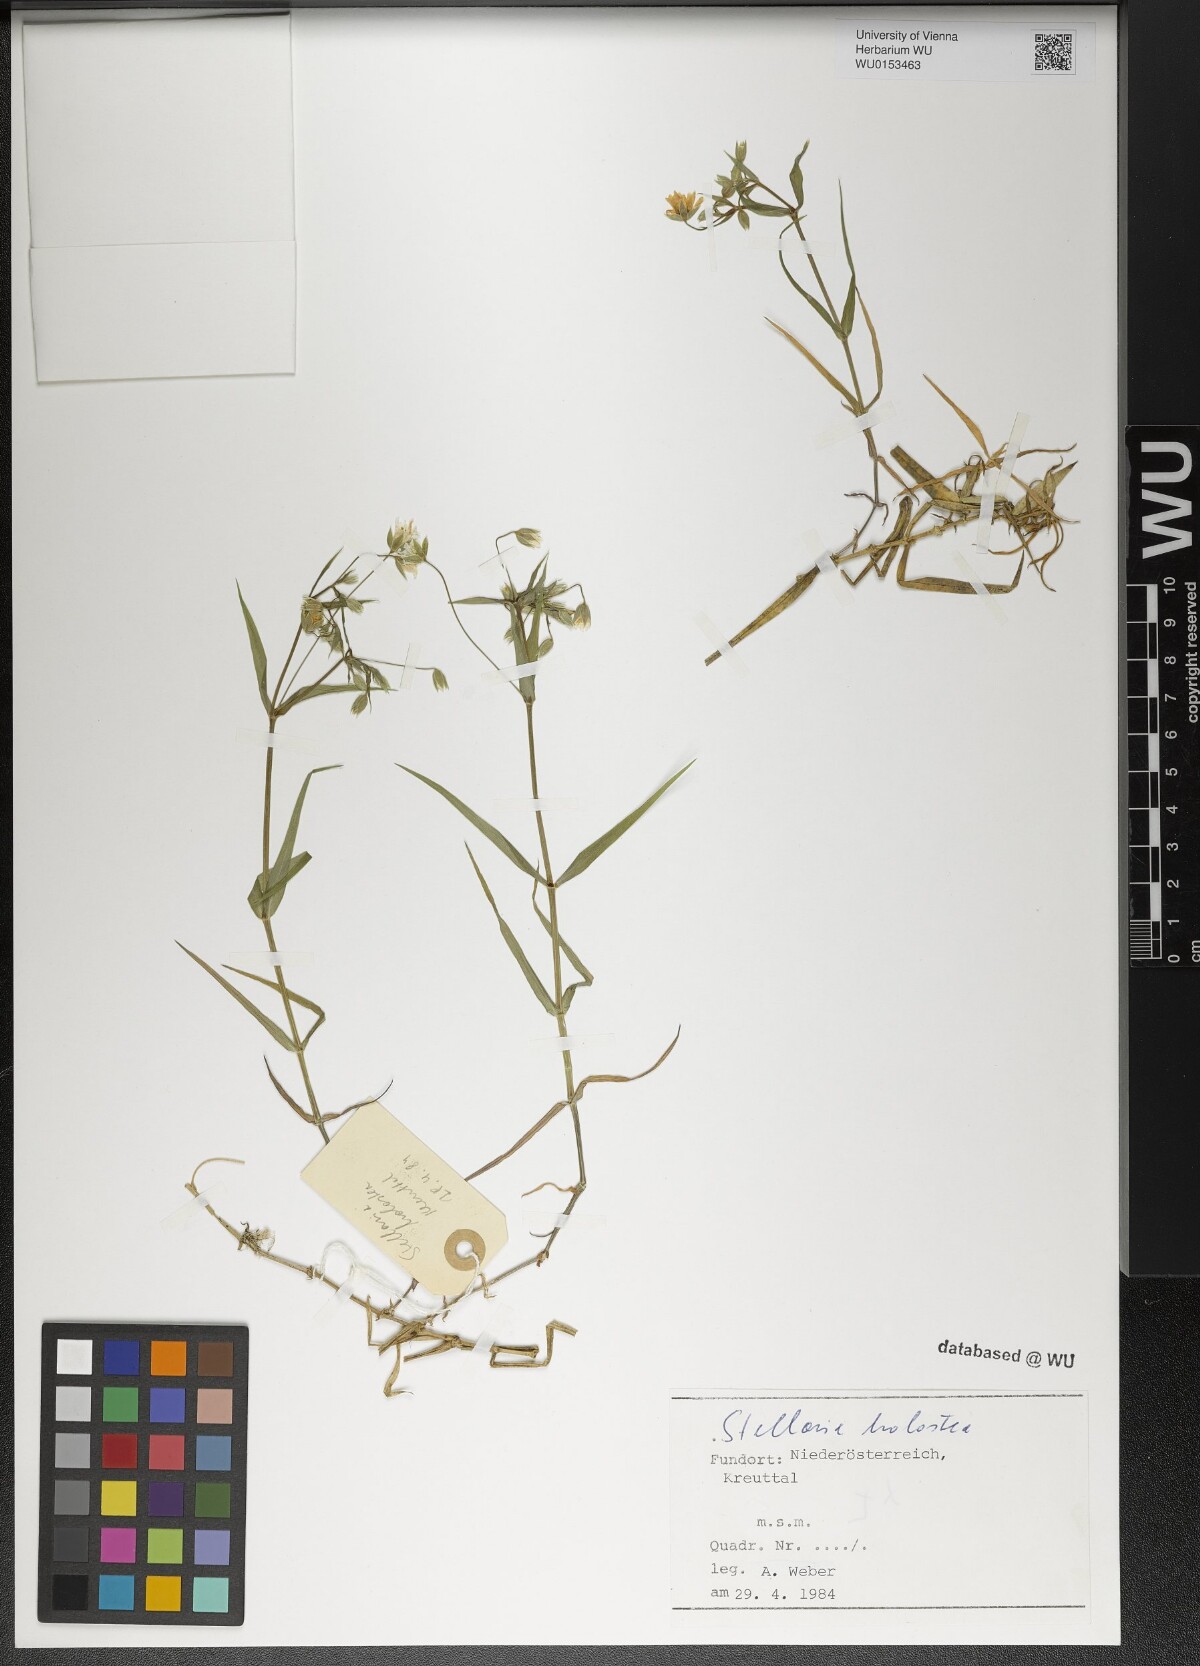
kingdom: Plantae
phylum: Tracheophyta
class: Magnoliopsida
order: Caryophyllales
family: Caryophyllaceae
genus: Rabelera
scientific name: Rabelera holostea
